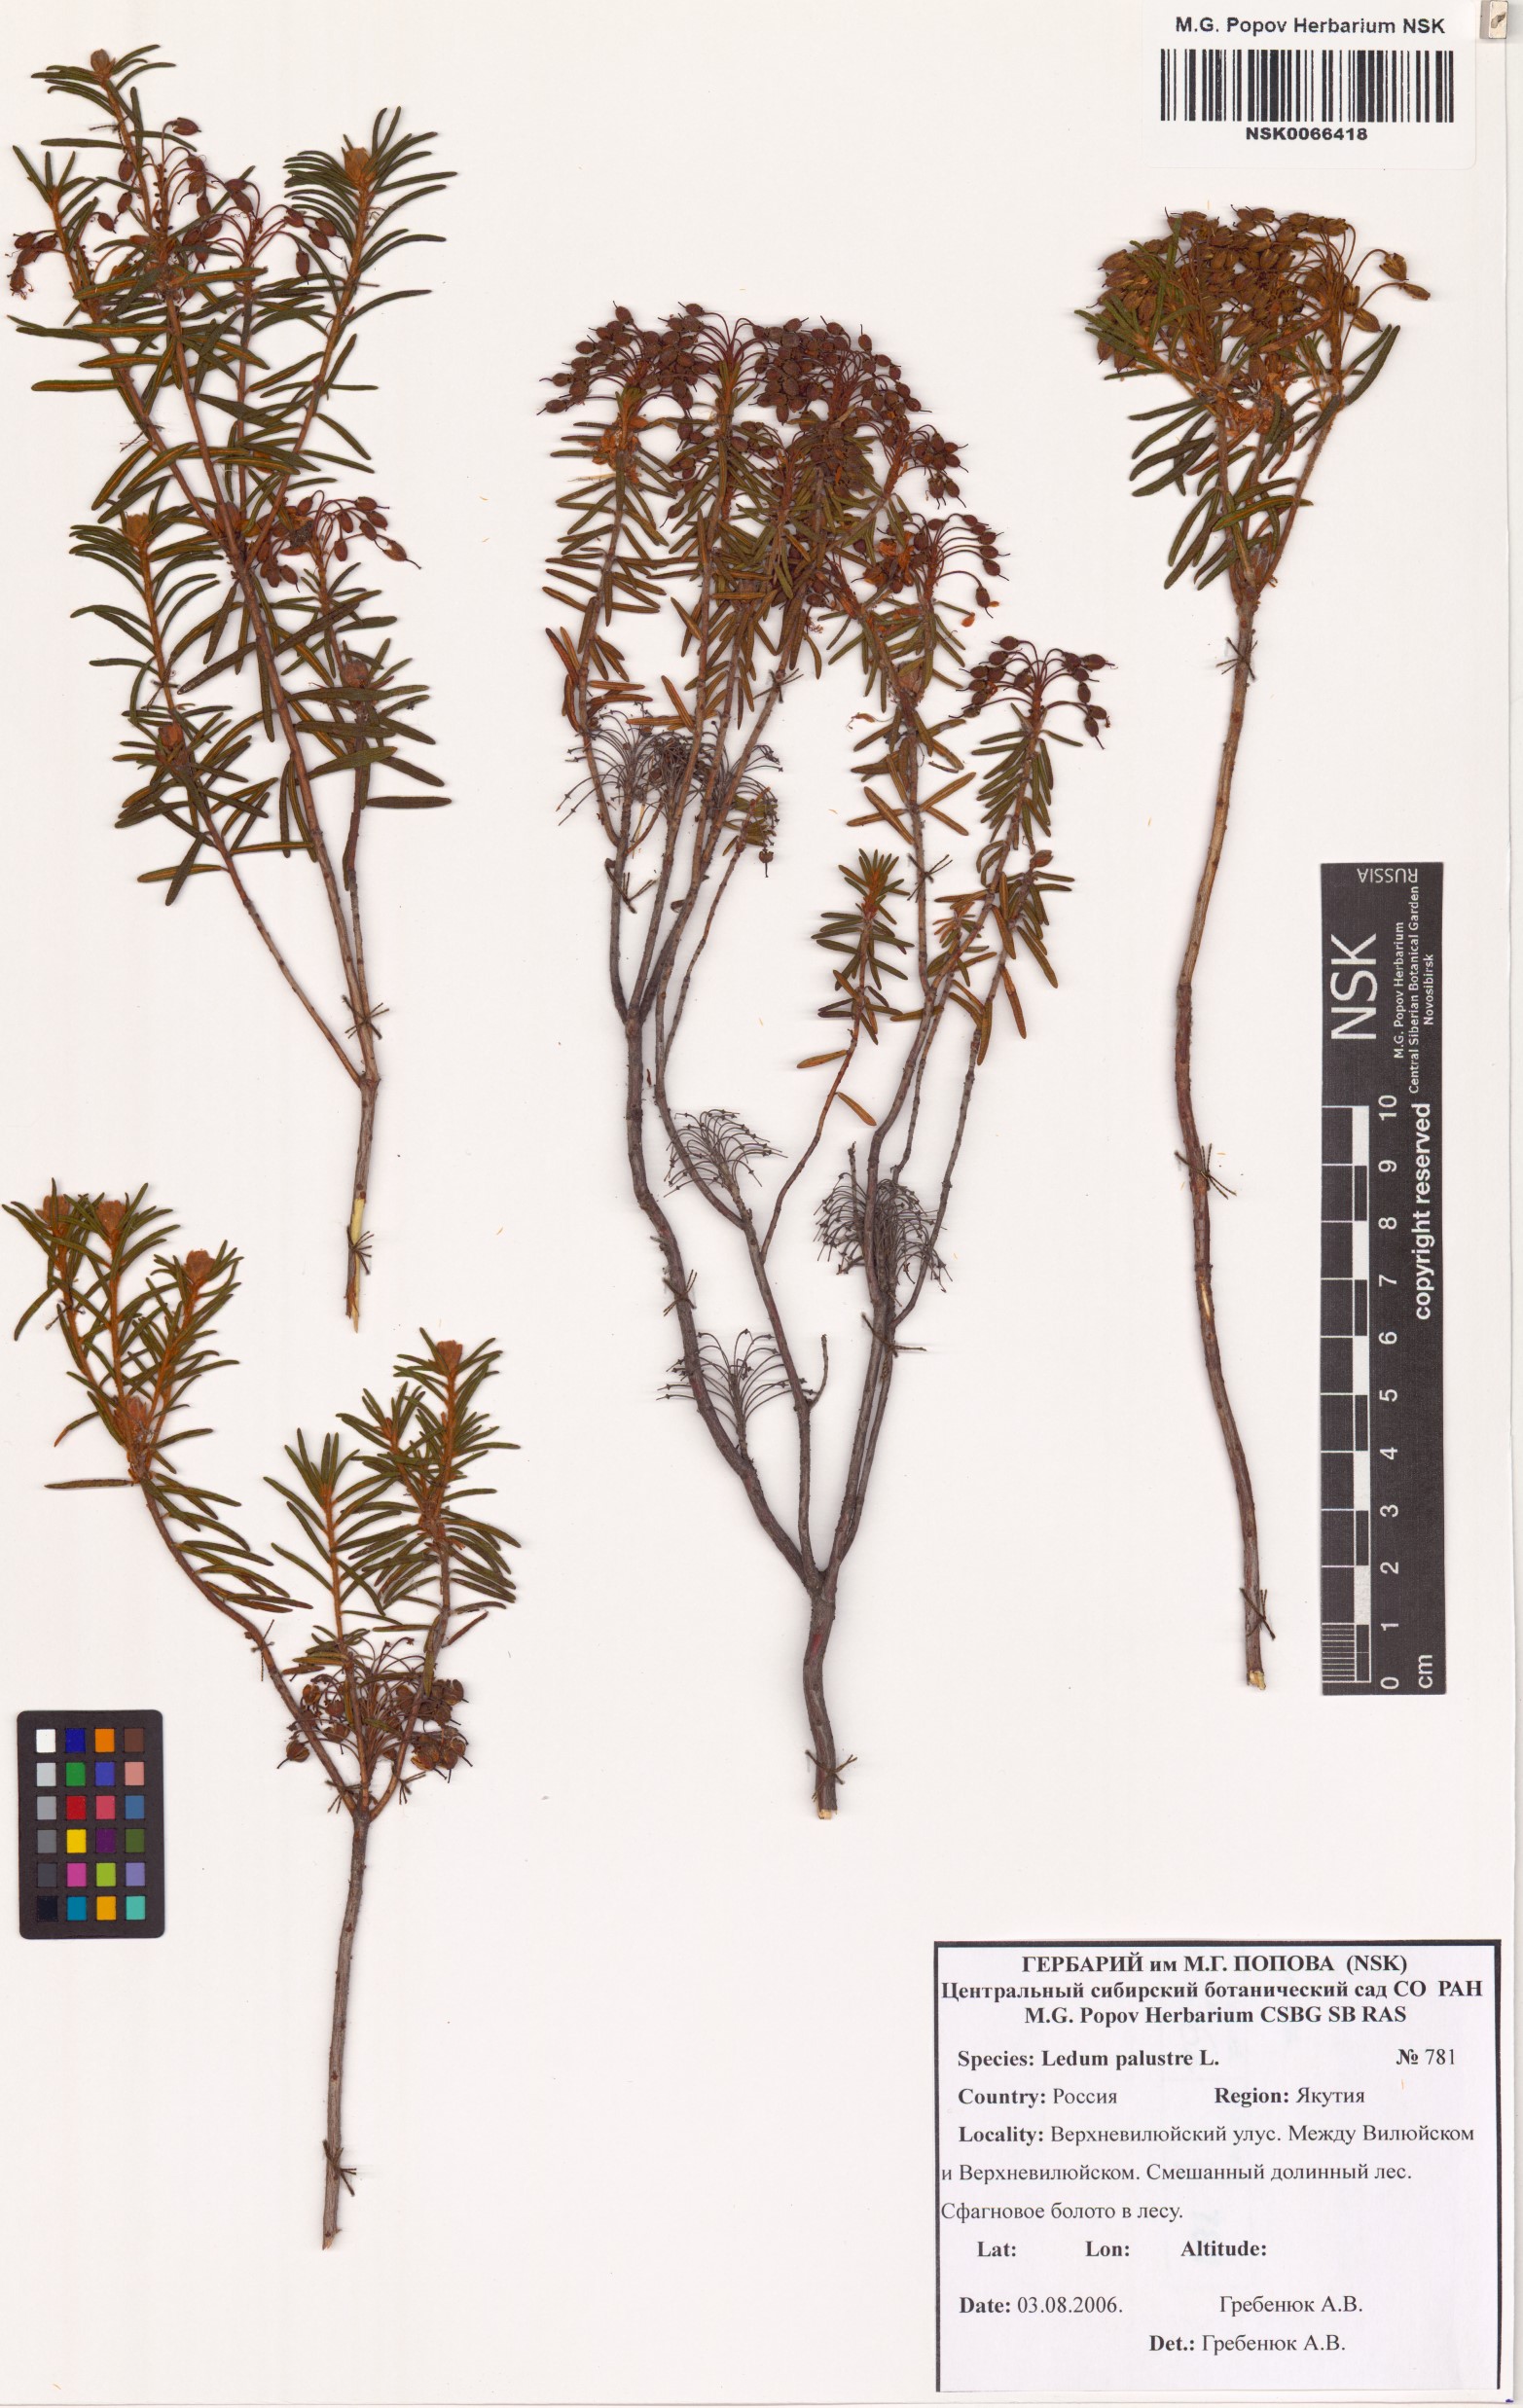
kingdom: Plantae
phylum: Tracheophyta
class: Magnoliopsida
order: Ericales
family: Ericaceae
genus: Rhododendron
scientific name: Rhododendron tomentosum
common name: Marsh labrador tea
